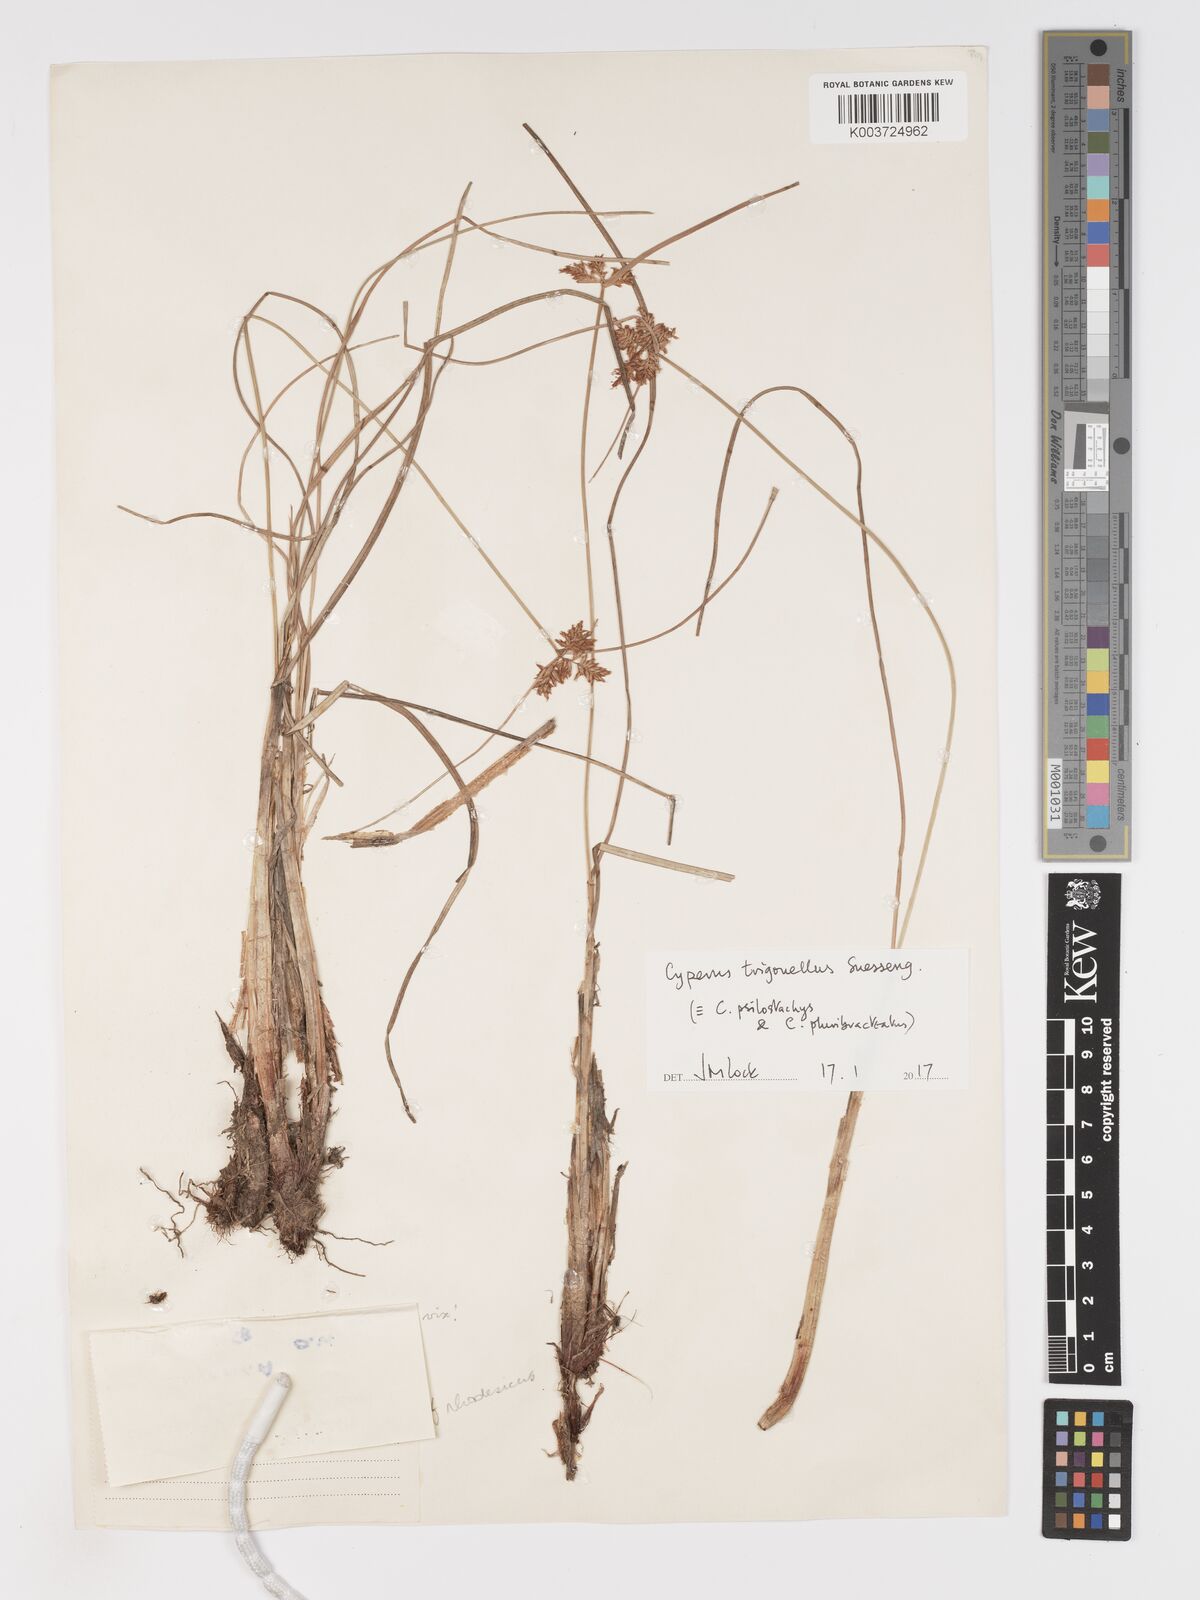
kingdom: Plantae
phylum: Tracheophyta
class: Liliopsida
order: Poales
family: Cyperaceae
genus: Cyperus
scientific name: Cyperus trigonellus
